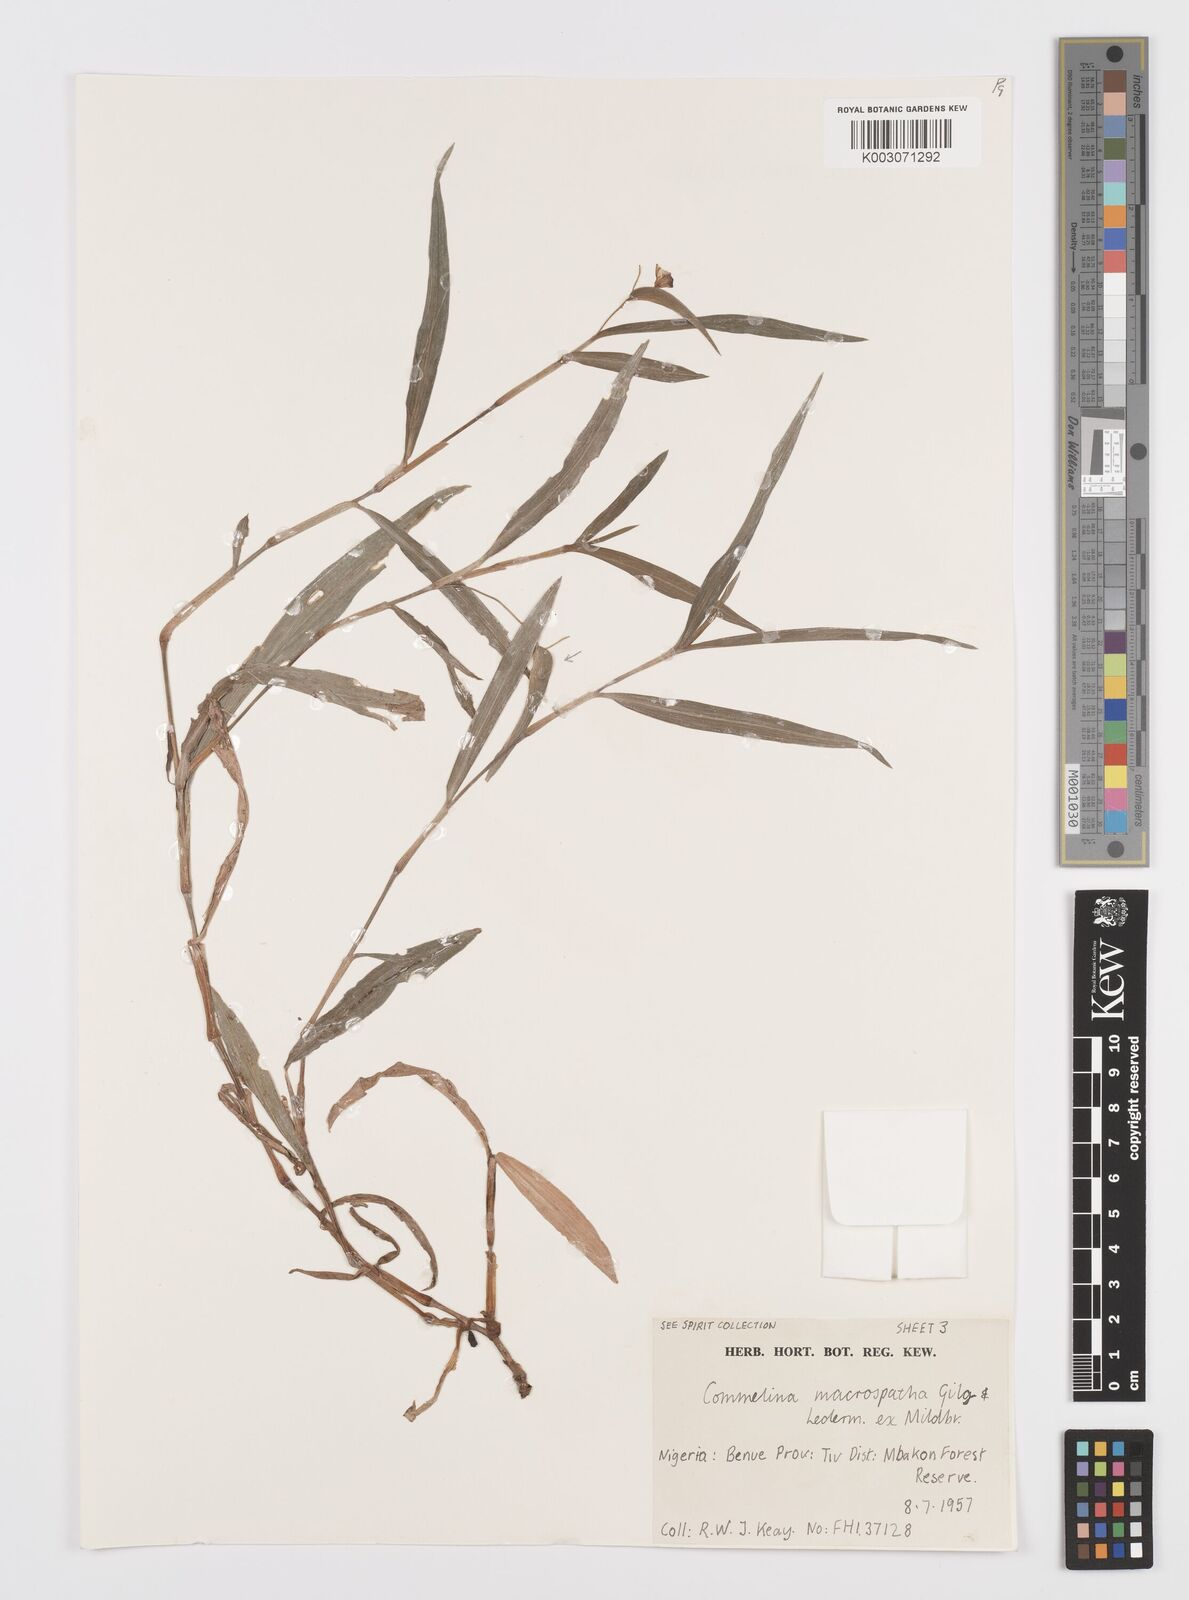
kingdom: Plantae
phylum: Tracheophyta
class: Liliopsida
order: Commelinales
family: Commelinaceae
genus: Commelina
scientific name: Commelina macrospatha
